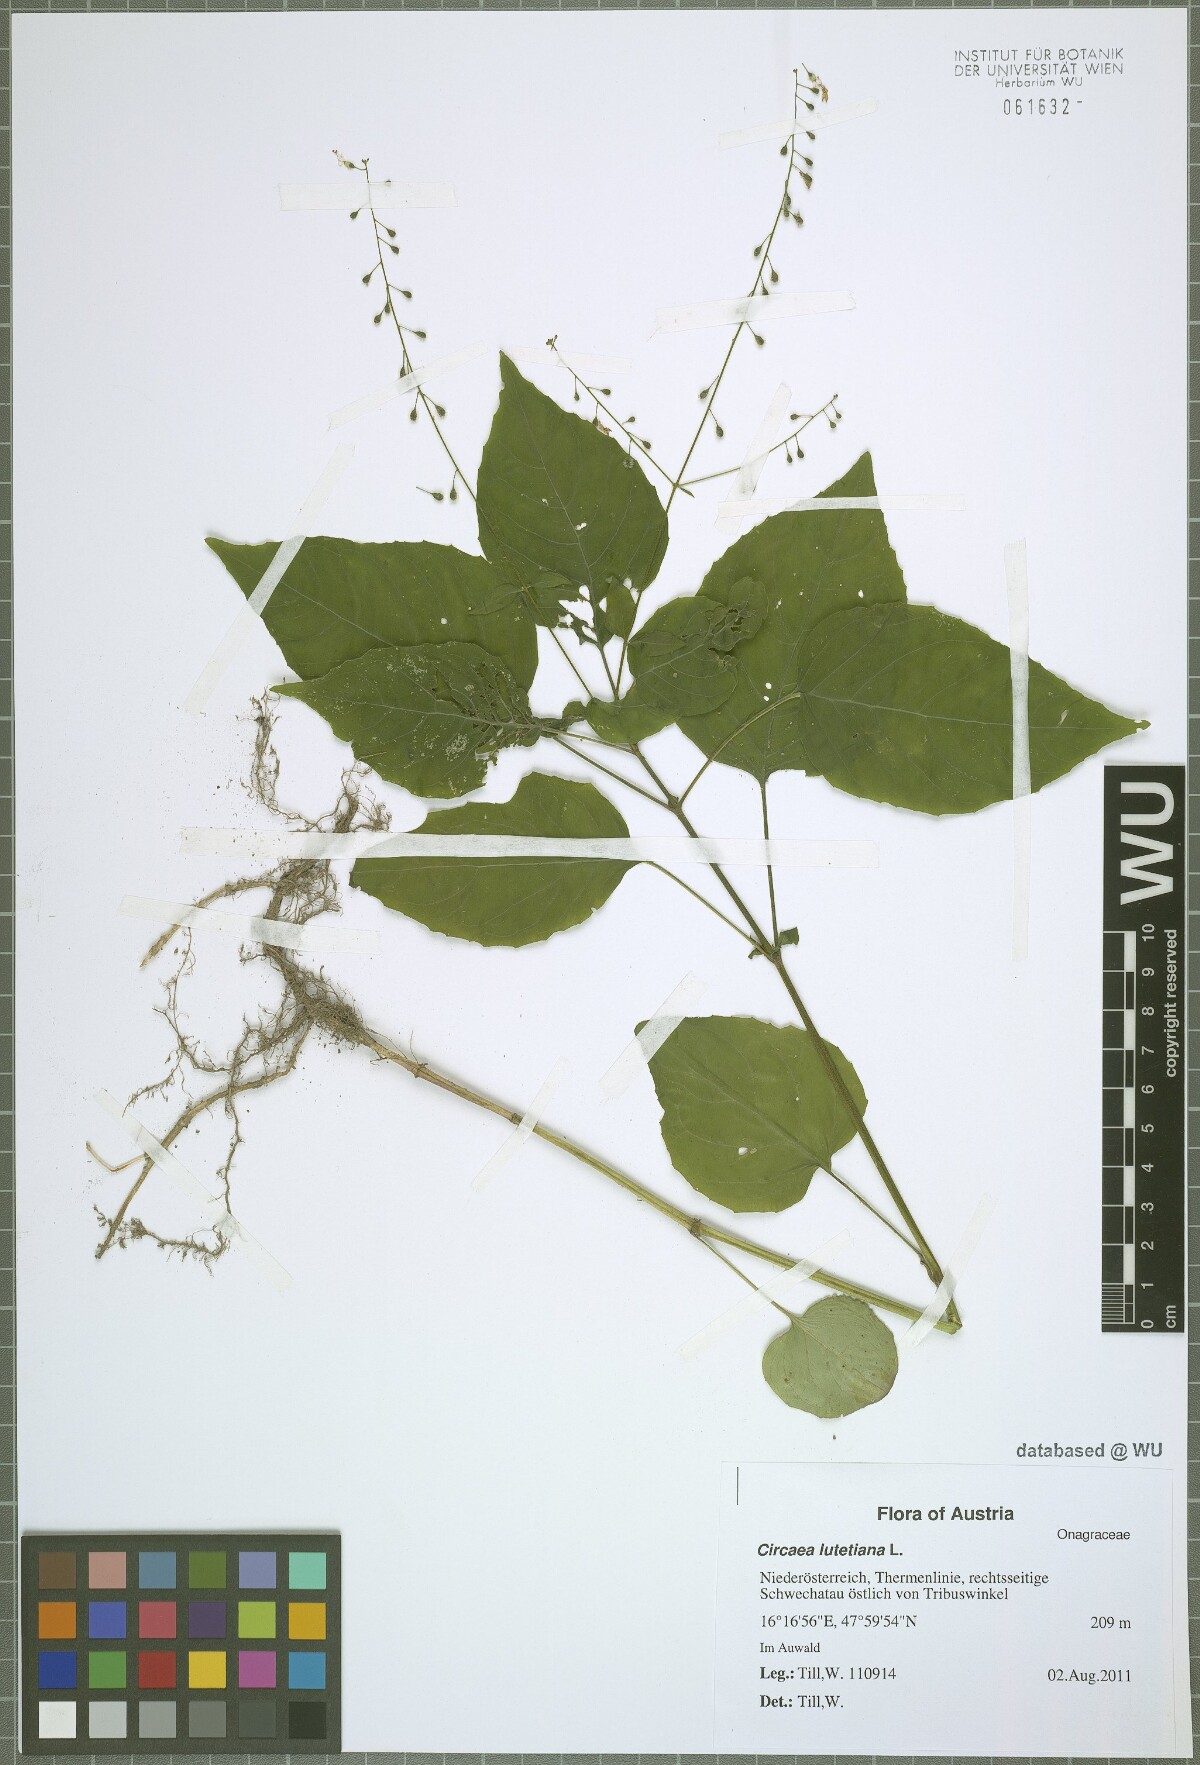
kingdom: Plantae
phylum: Tracheophyta
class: Magnoliopsida
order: Myrtales
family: Onagraceae
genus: Circaea
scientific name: Circaea lutetiana
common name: Enchanter's-nightshade
